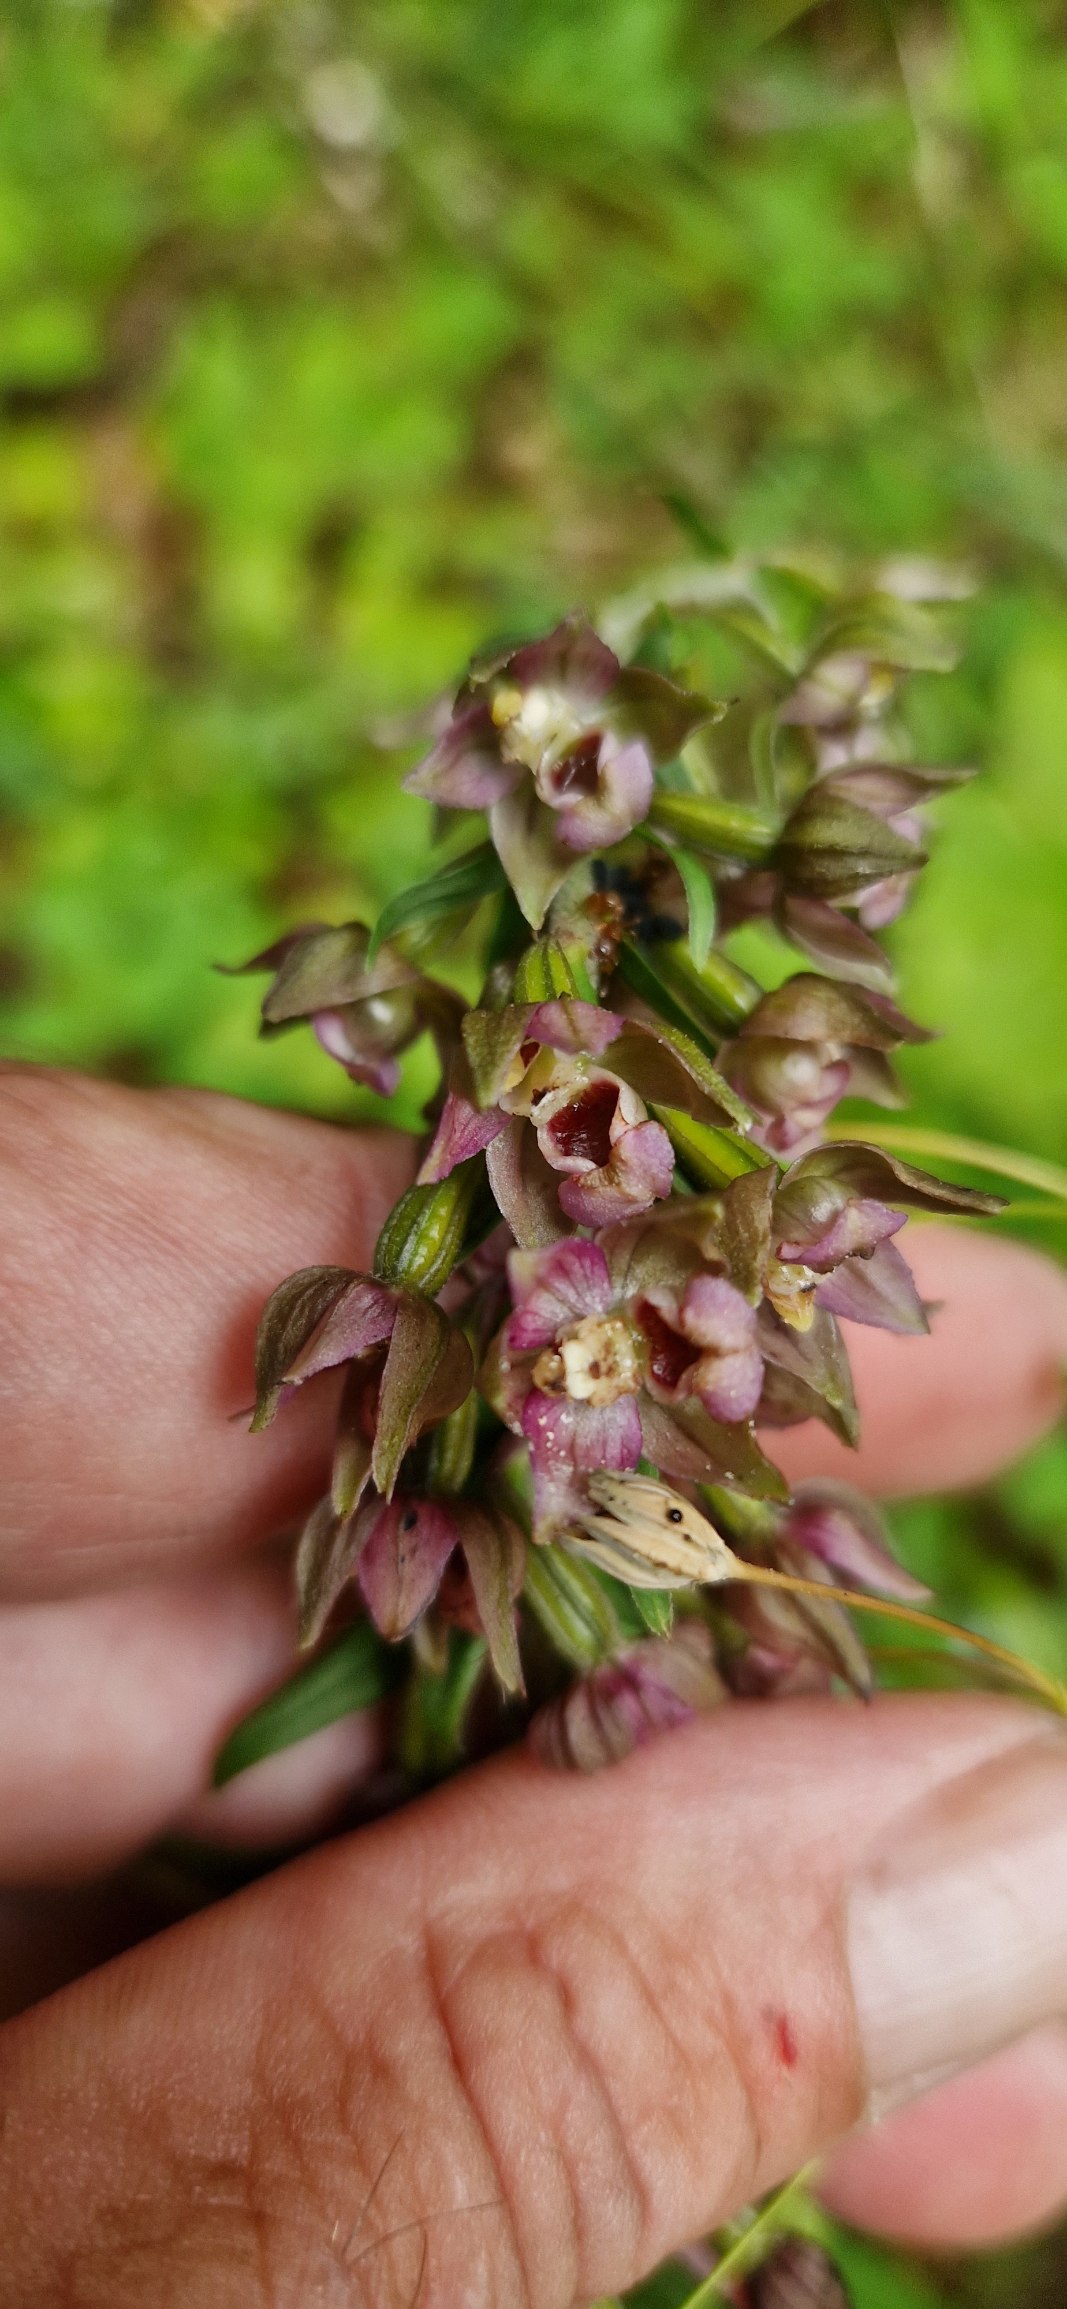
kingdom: Plantae
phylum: Tracheophyta
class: Liliopsida
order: Asparagales
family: Orchidaceae
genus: Epipactis
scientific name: Epipactis helleborine
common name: Skov-hullæbe
